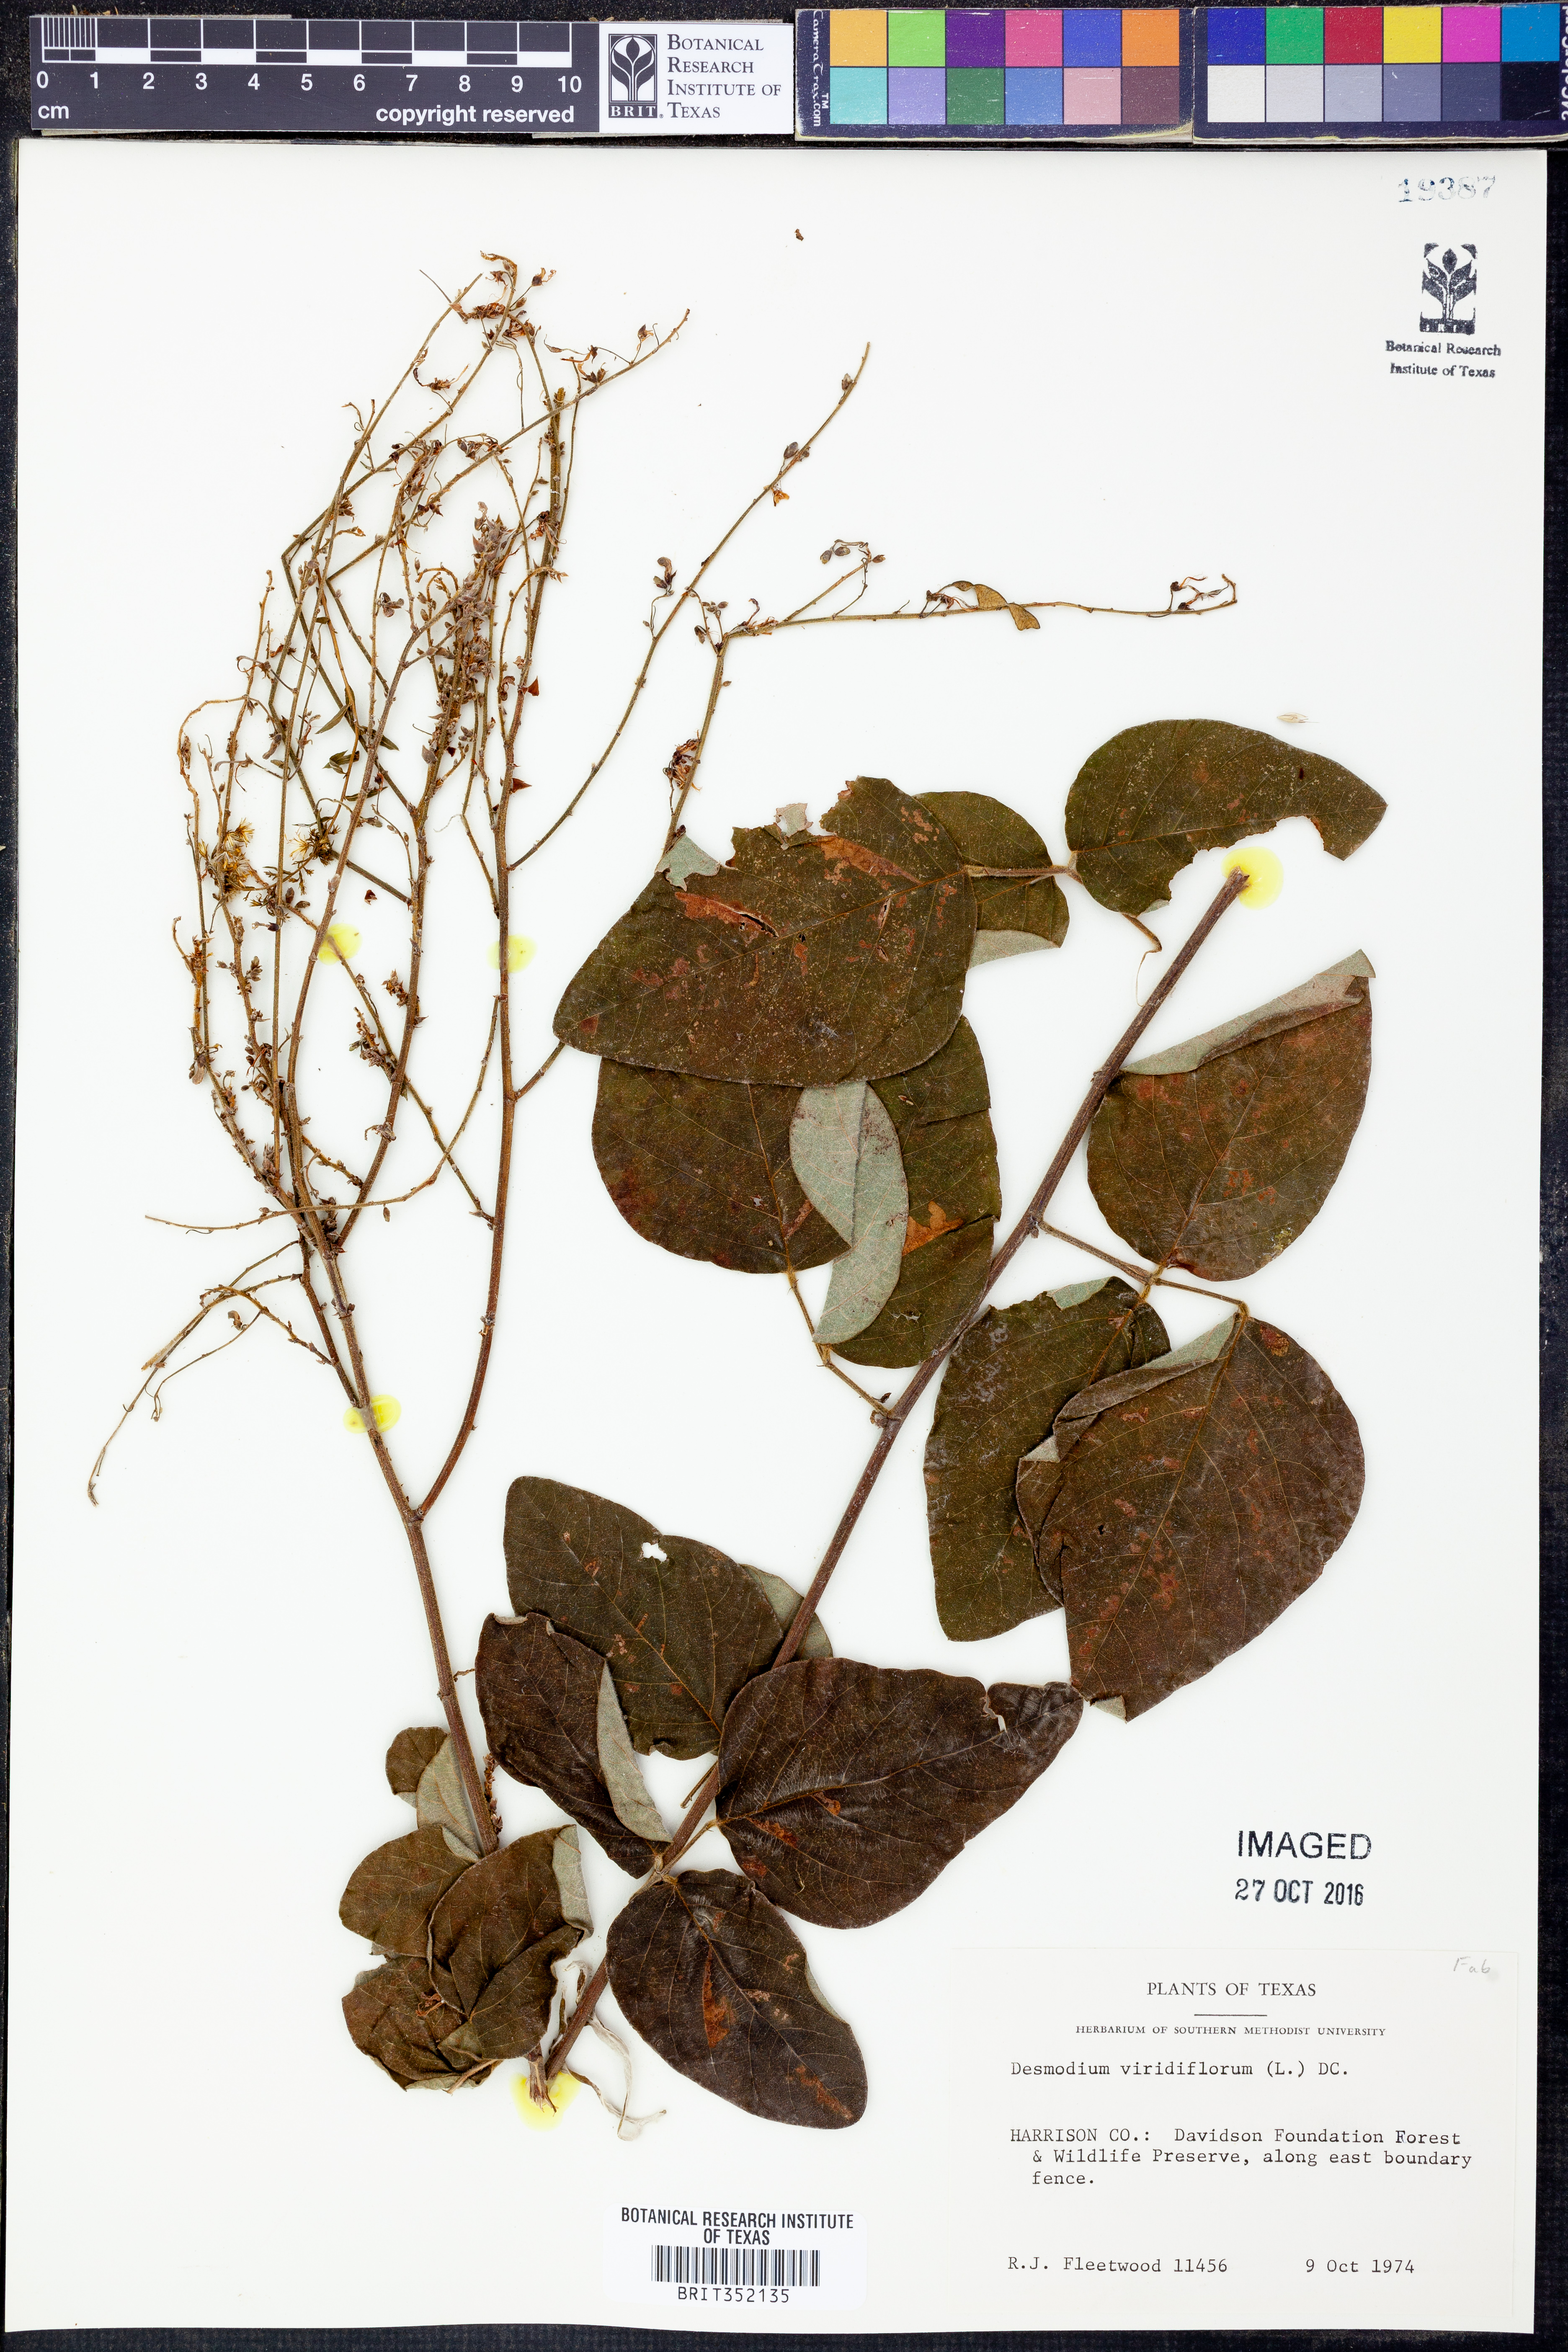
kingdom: Plantae
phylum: Tracheophyta
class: Magnoliopsida
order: Fabales
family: Fabaceae
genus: Desmodium
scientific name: Desmodium viridiflorum
